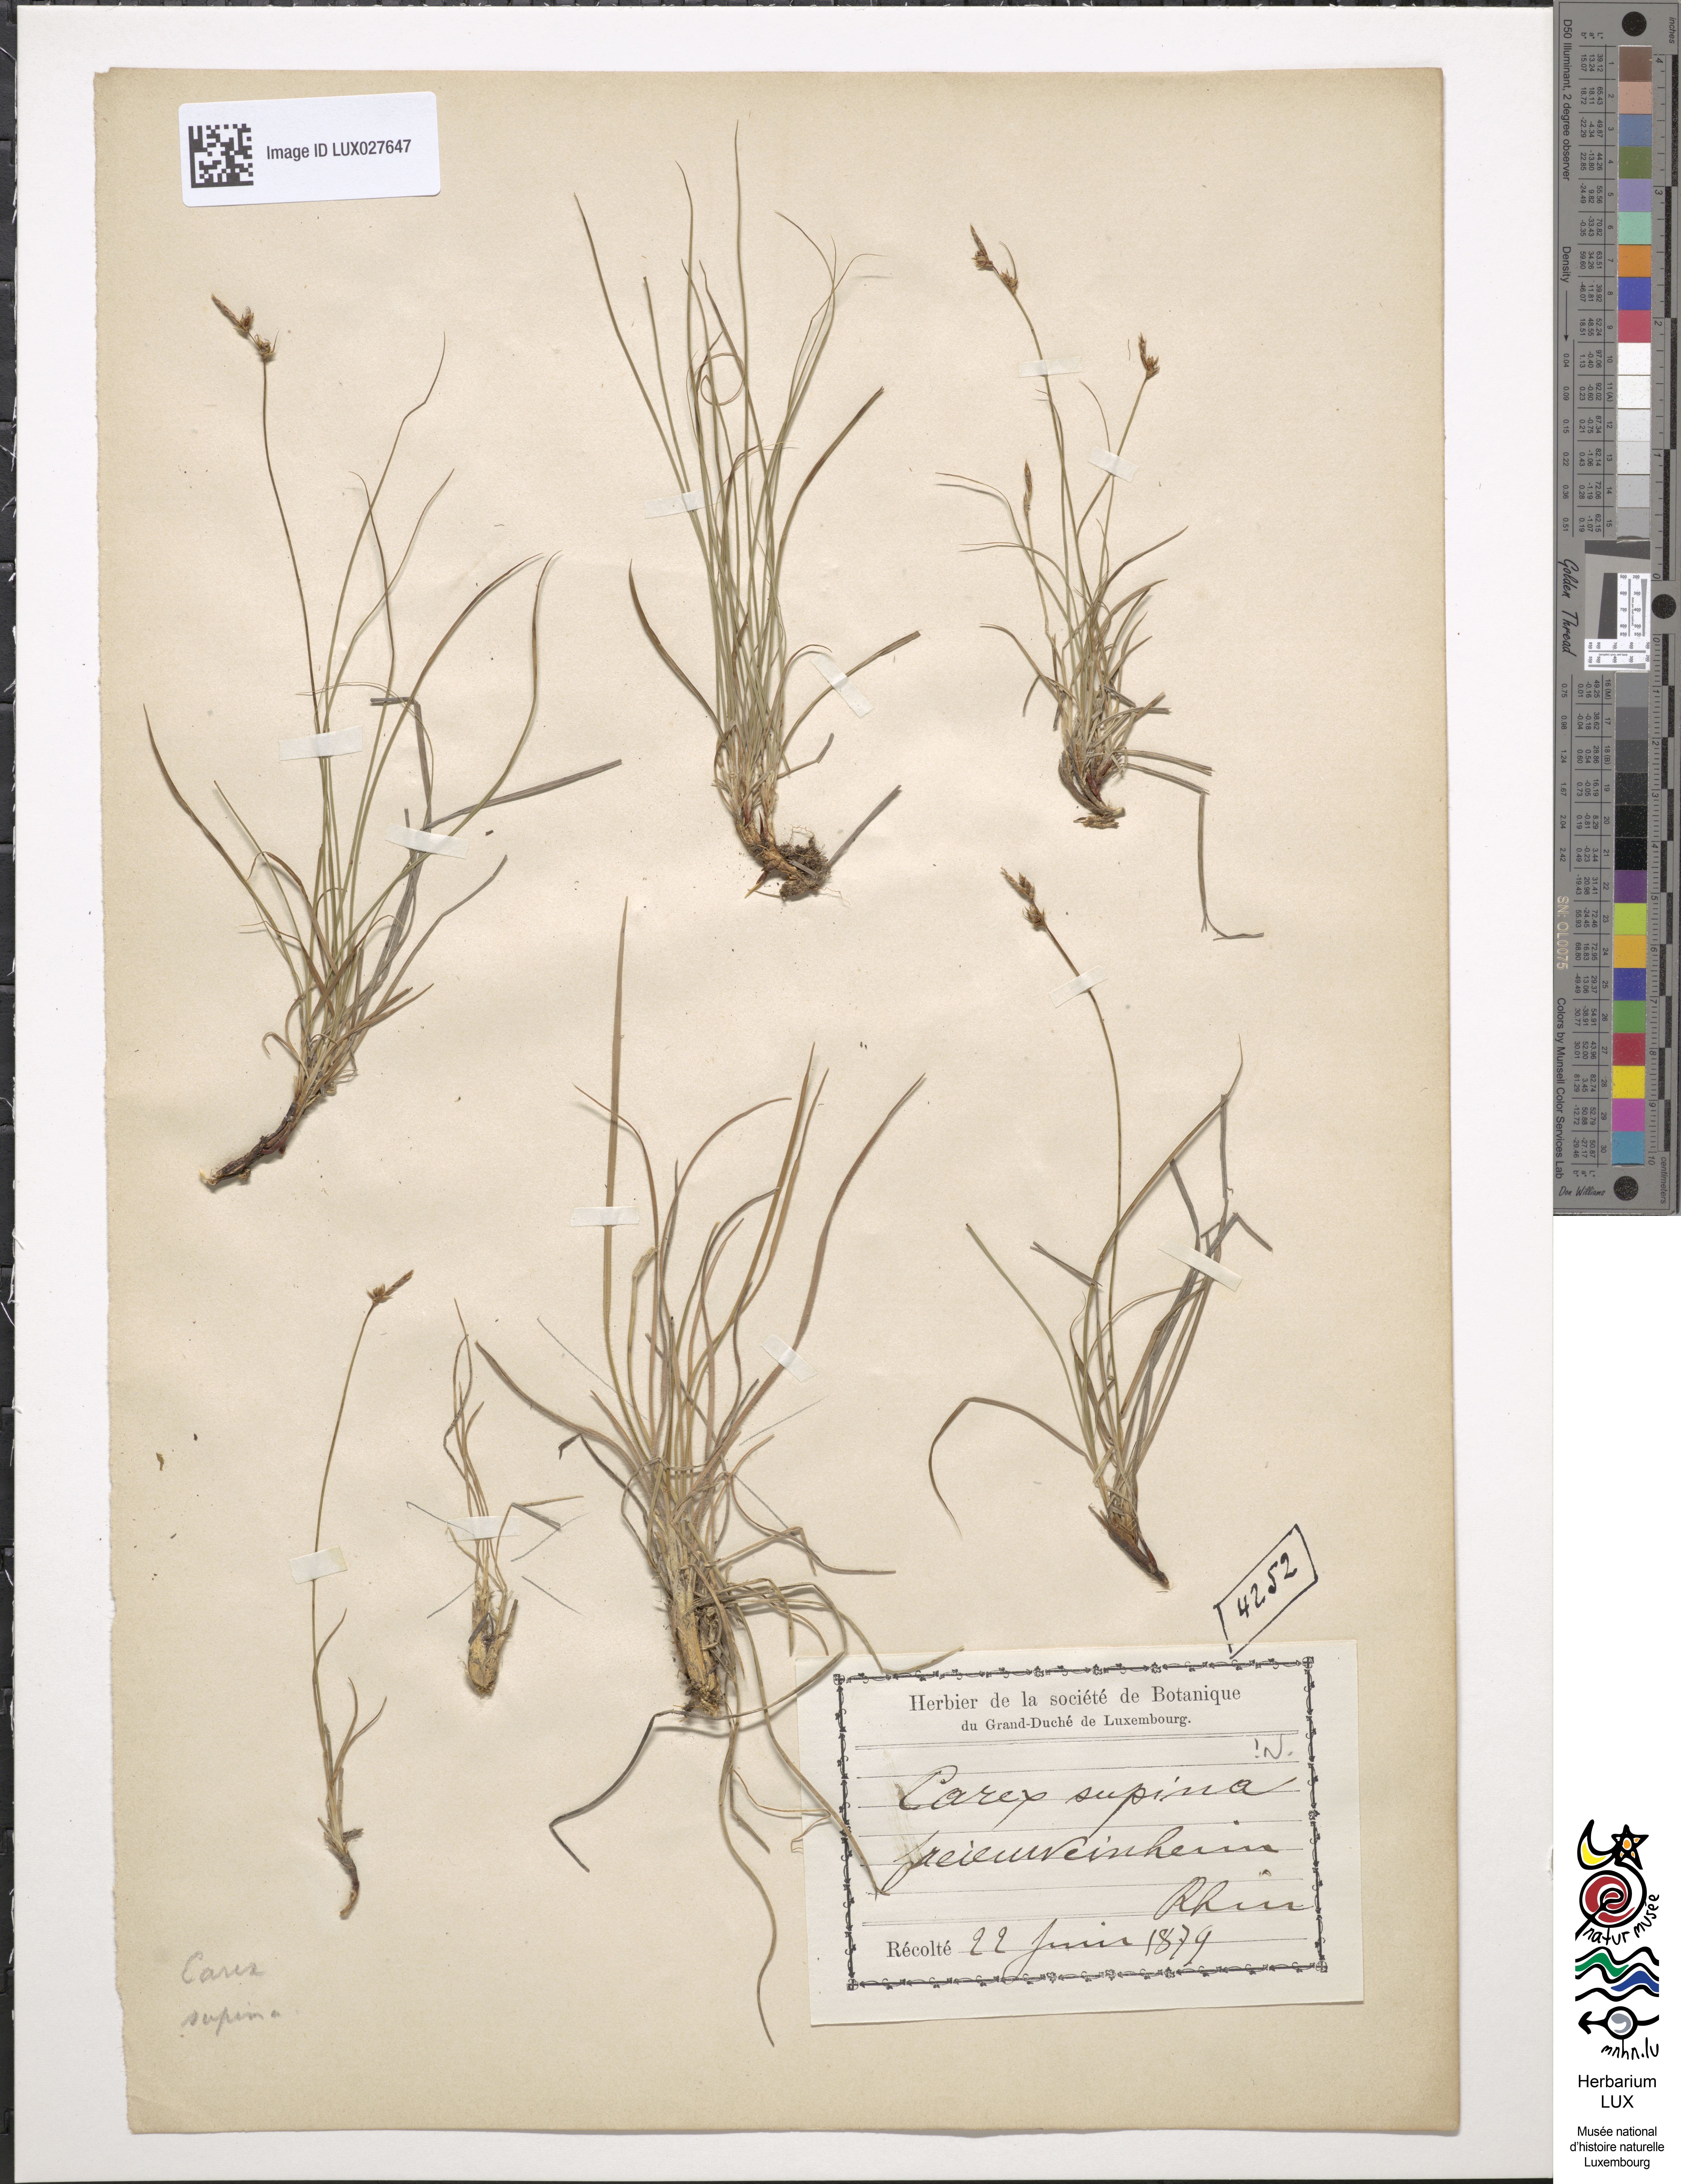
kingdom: Plantae
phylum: Tracheophyta
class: Liliopsida
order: Poales
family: Cyperaceae
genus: Carex
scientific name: Carex supina
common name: Lying-back sedge
